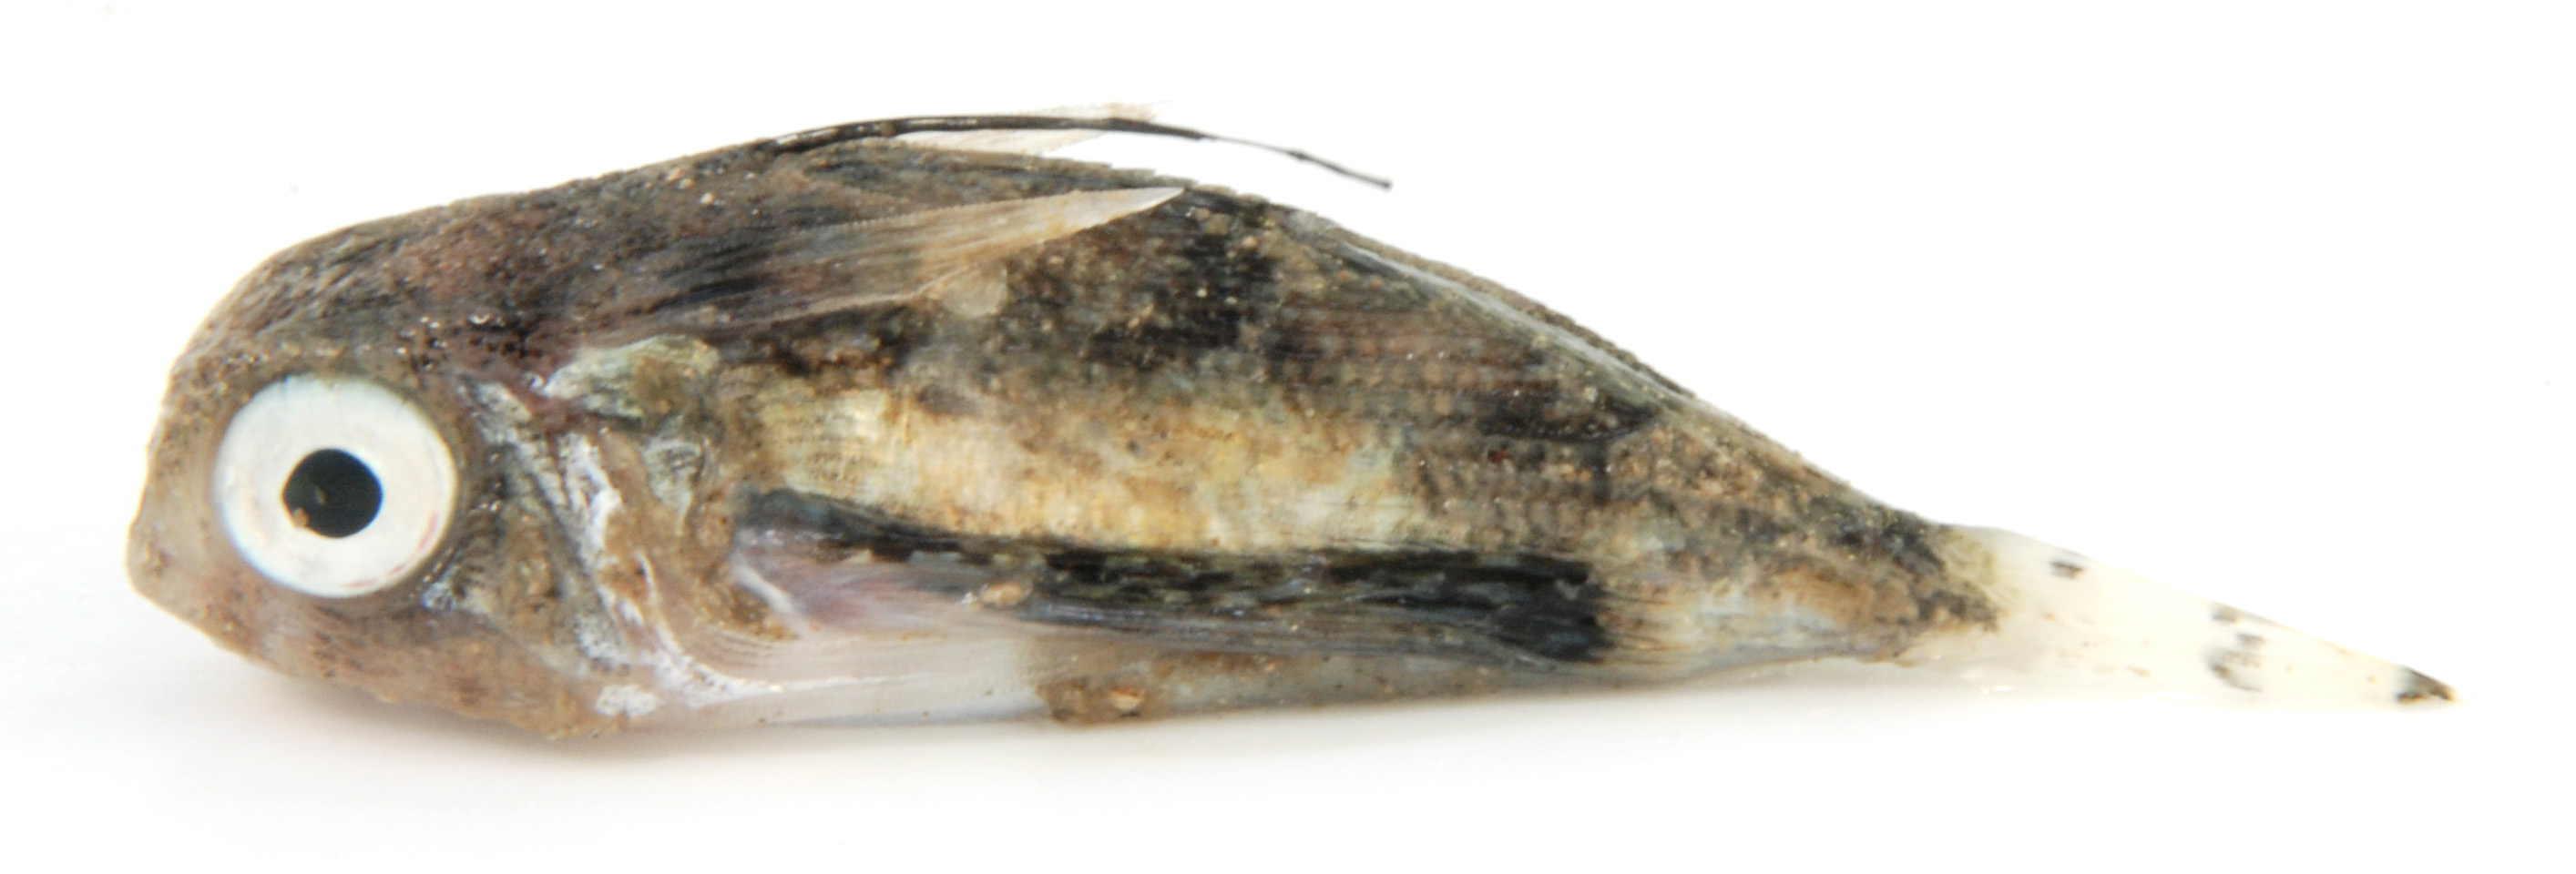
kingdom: Animalia
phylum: Chordata
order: Scorpaeniformes
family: Dactylopteridae
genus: Dactyloptena
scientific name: Dactyloptena peterseni
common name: Starry helmet gurnard
